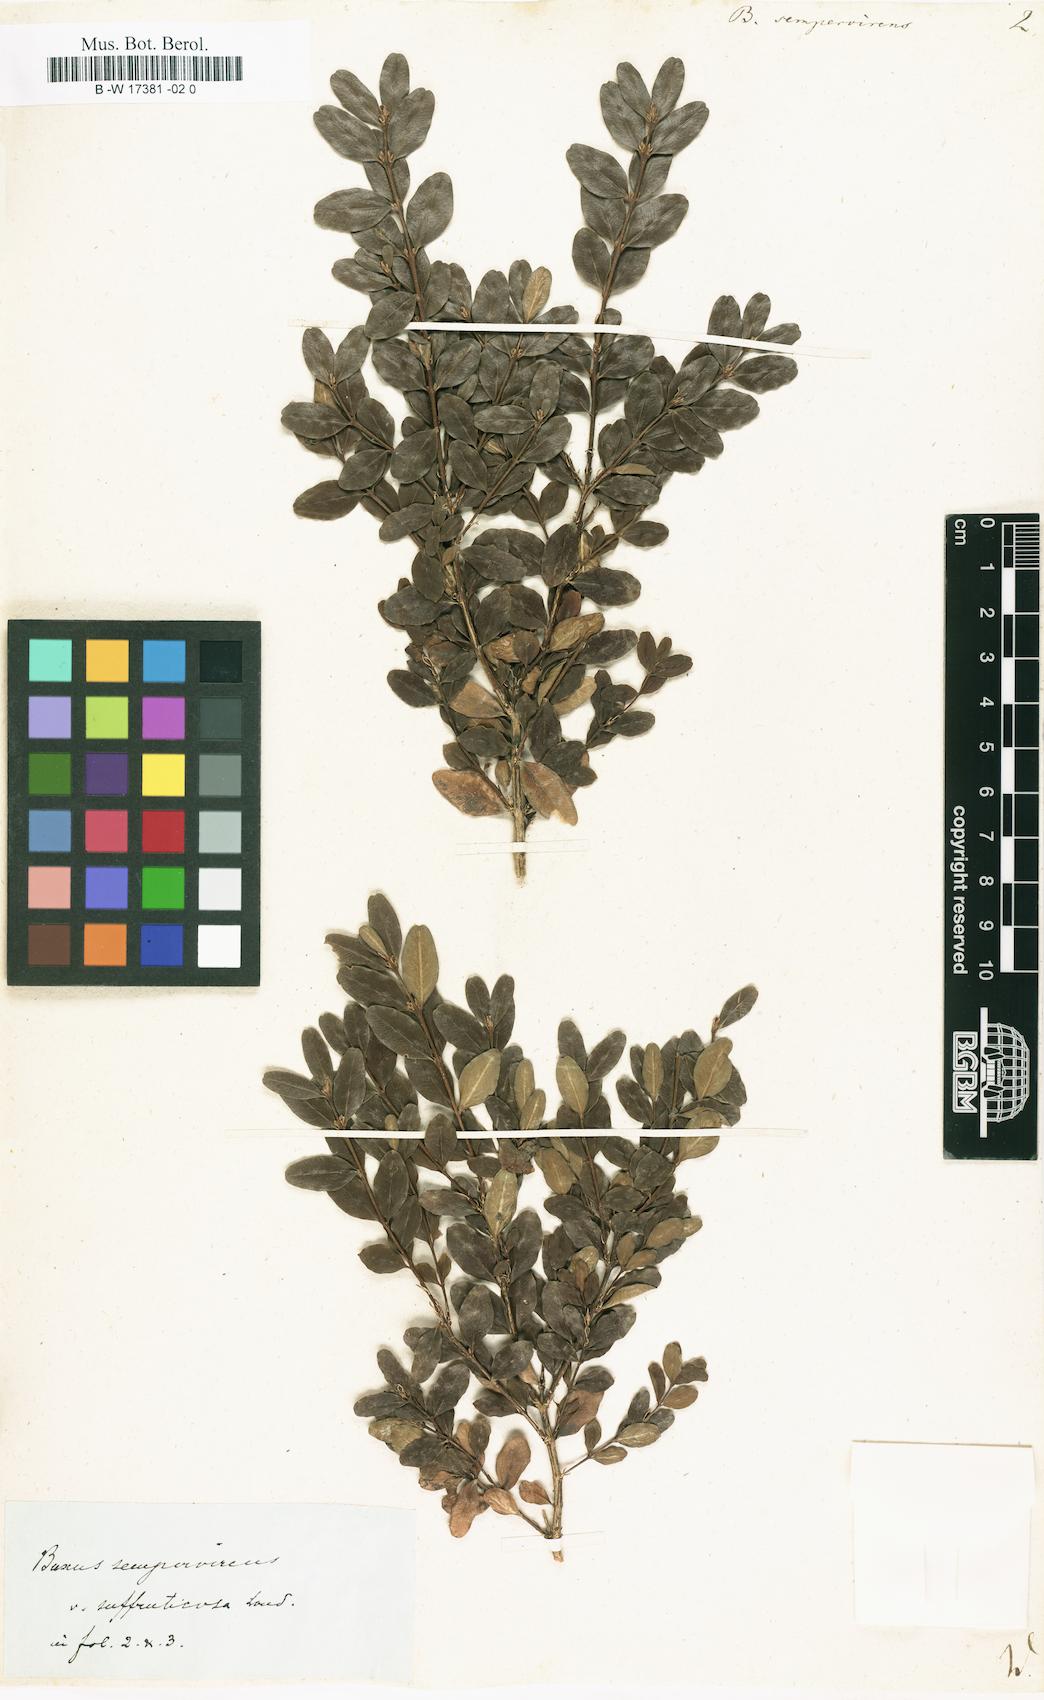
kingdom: Plantae
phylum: Tracheophyta
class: Magnoliopsida
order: Buxales
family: Buxaceae
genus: Buxus
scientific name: Buxus sempervirens
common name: Box
